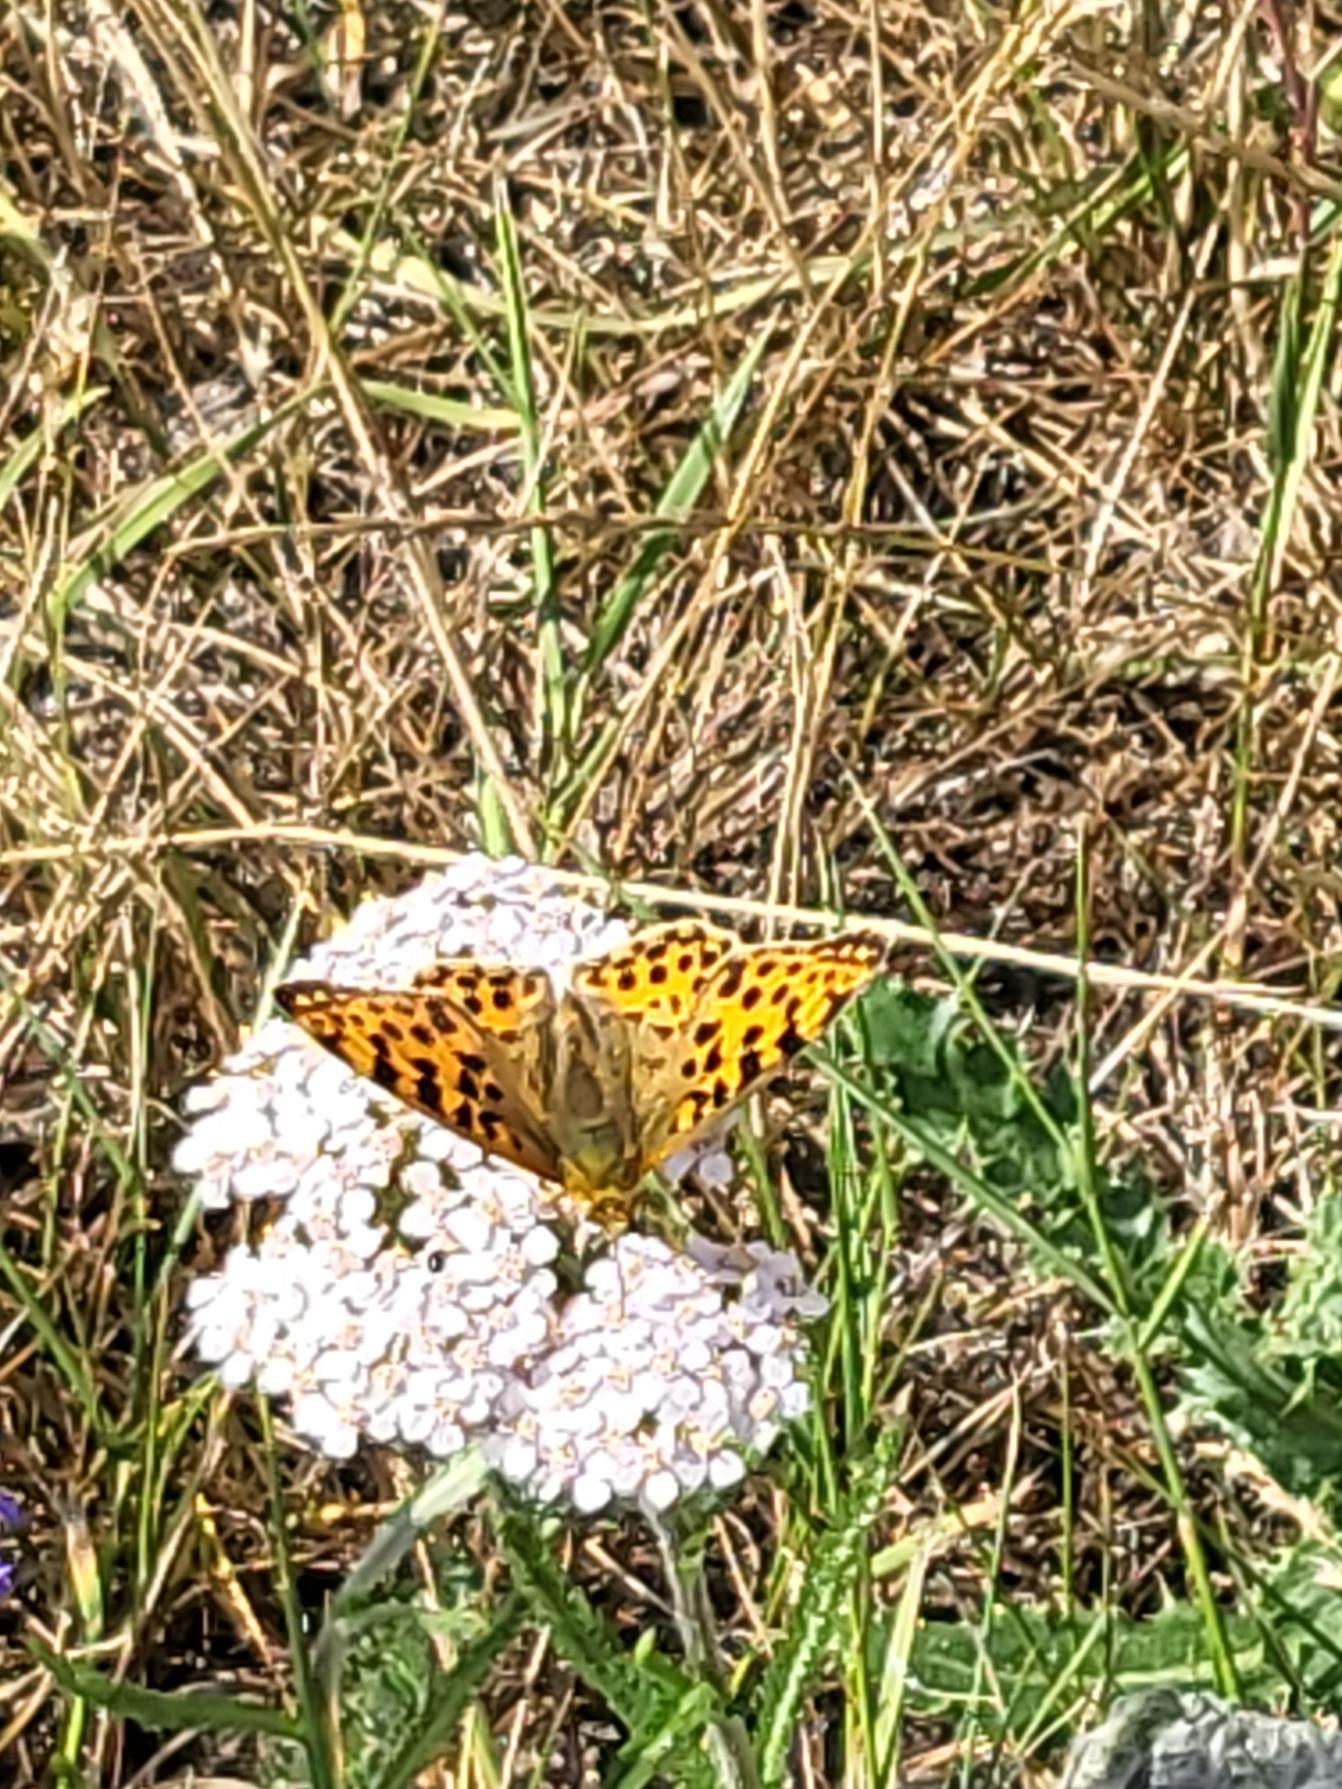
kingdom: Animalia
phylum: Arthropoda
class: Insecta
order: Lepidoptera
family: Nymphalidae
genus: Issoria
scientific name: Issoria lathonia
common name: Storplettet perlemorsommerfugl
